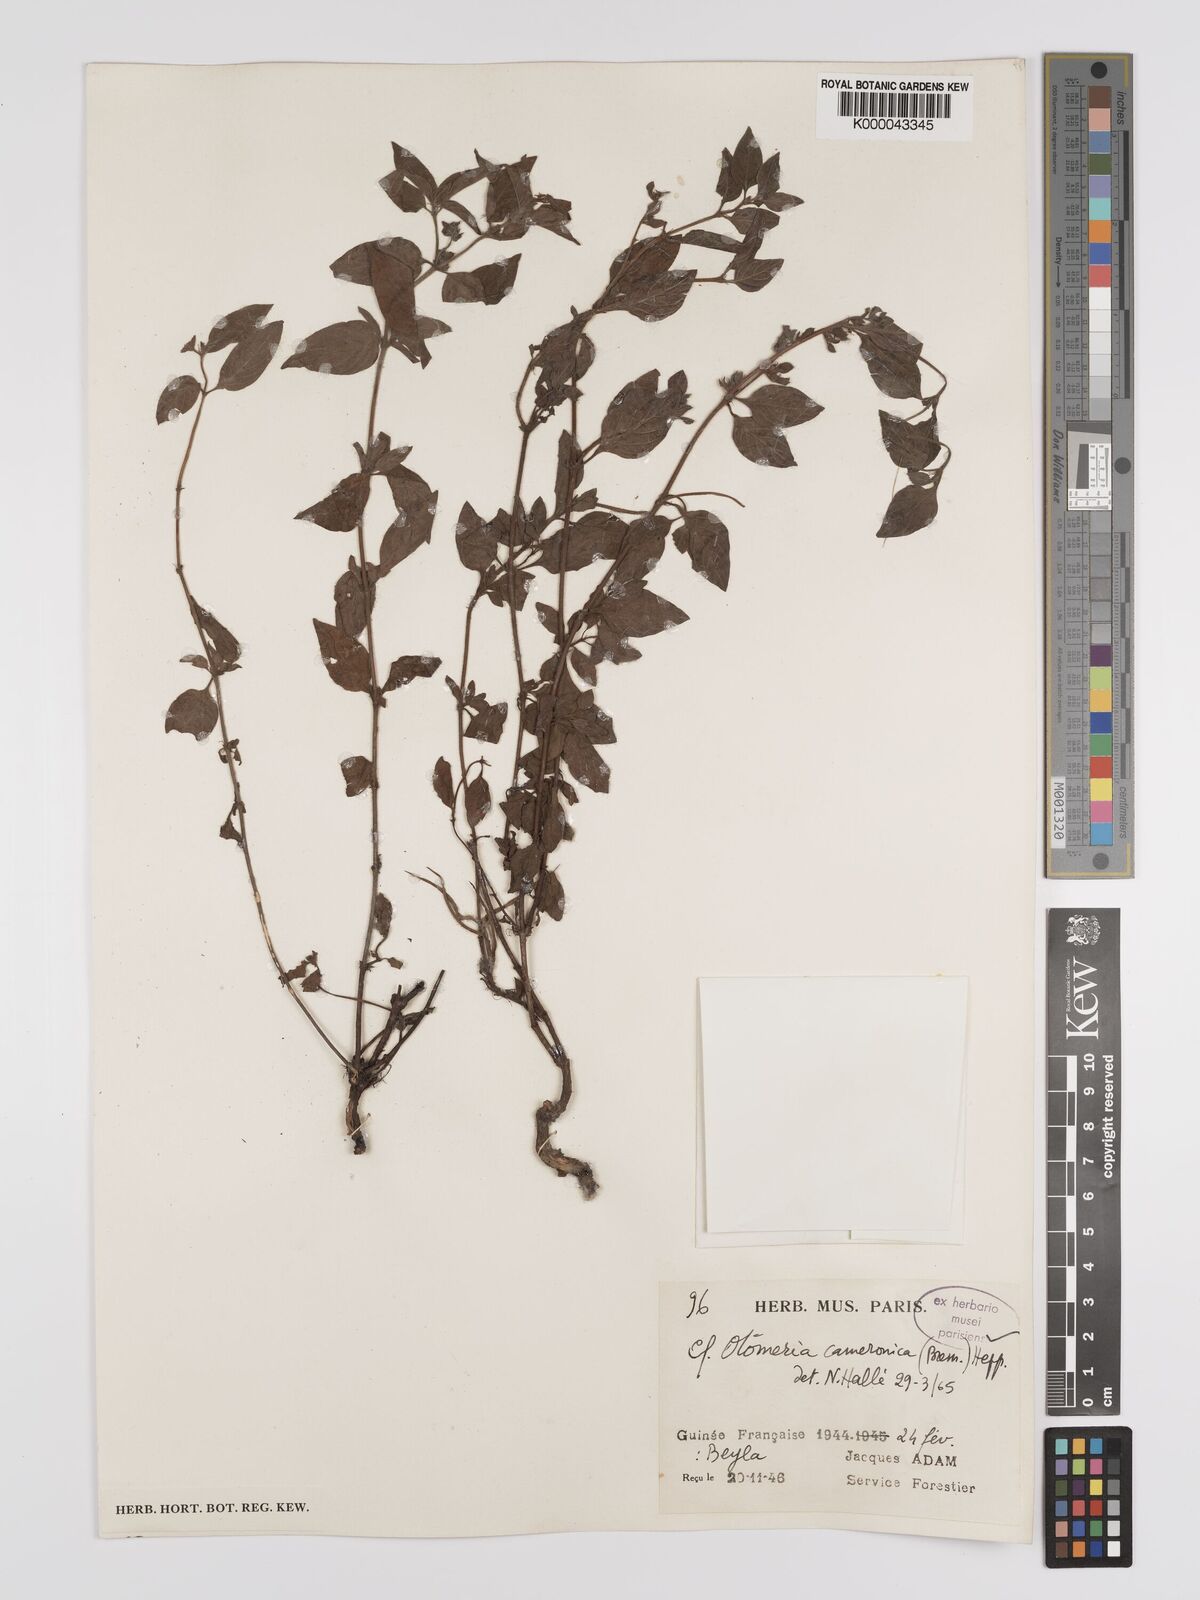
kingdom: Plantae
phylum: Tracheophyta
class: Magnoliopsida
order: Gentianales
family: Rubiaceae
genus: Otomeria
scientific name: Otomeria cameronica
